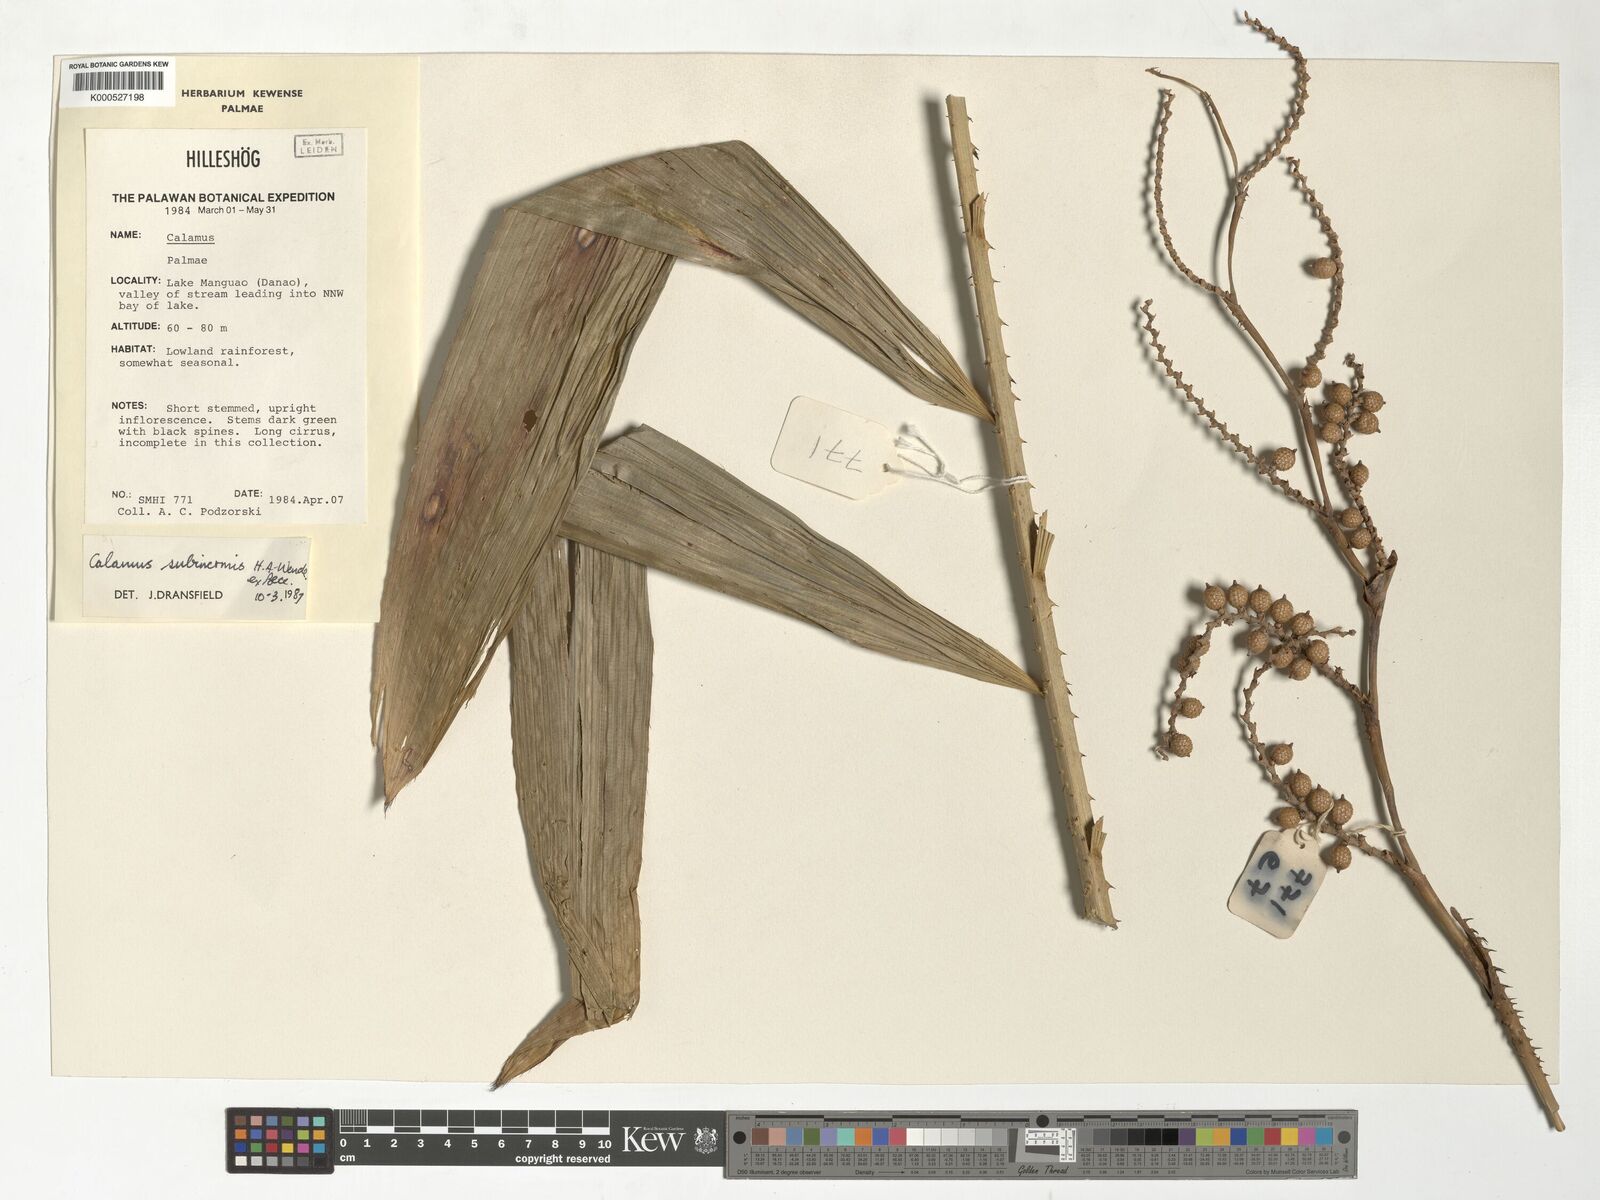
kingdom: Plantae
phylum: Tracheophyta
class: Liliopsida
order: Arecales
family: Arecaceae
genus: Calamus
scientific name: Calamus moseleyanus
